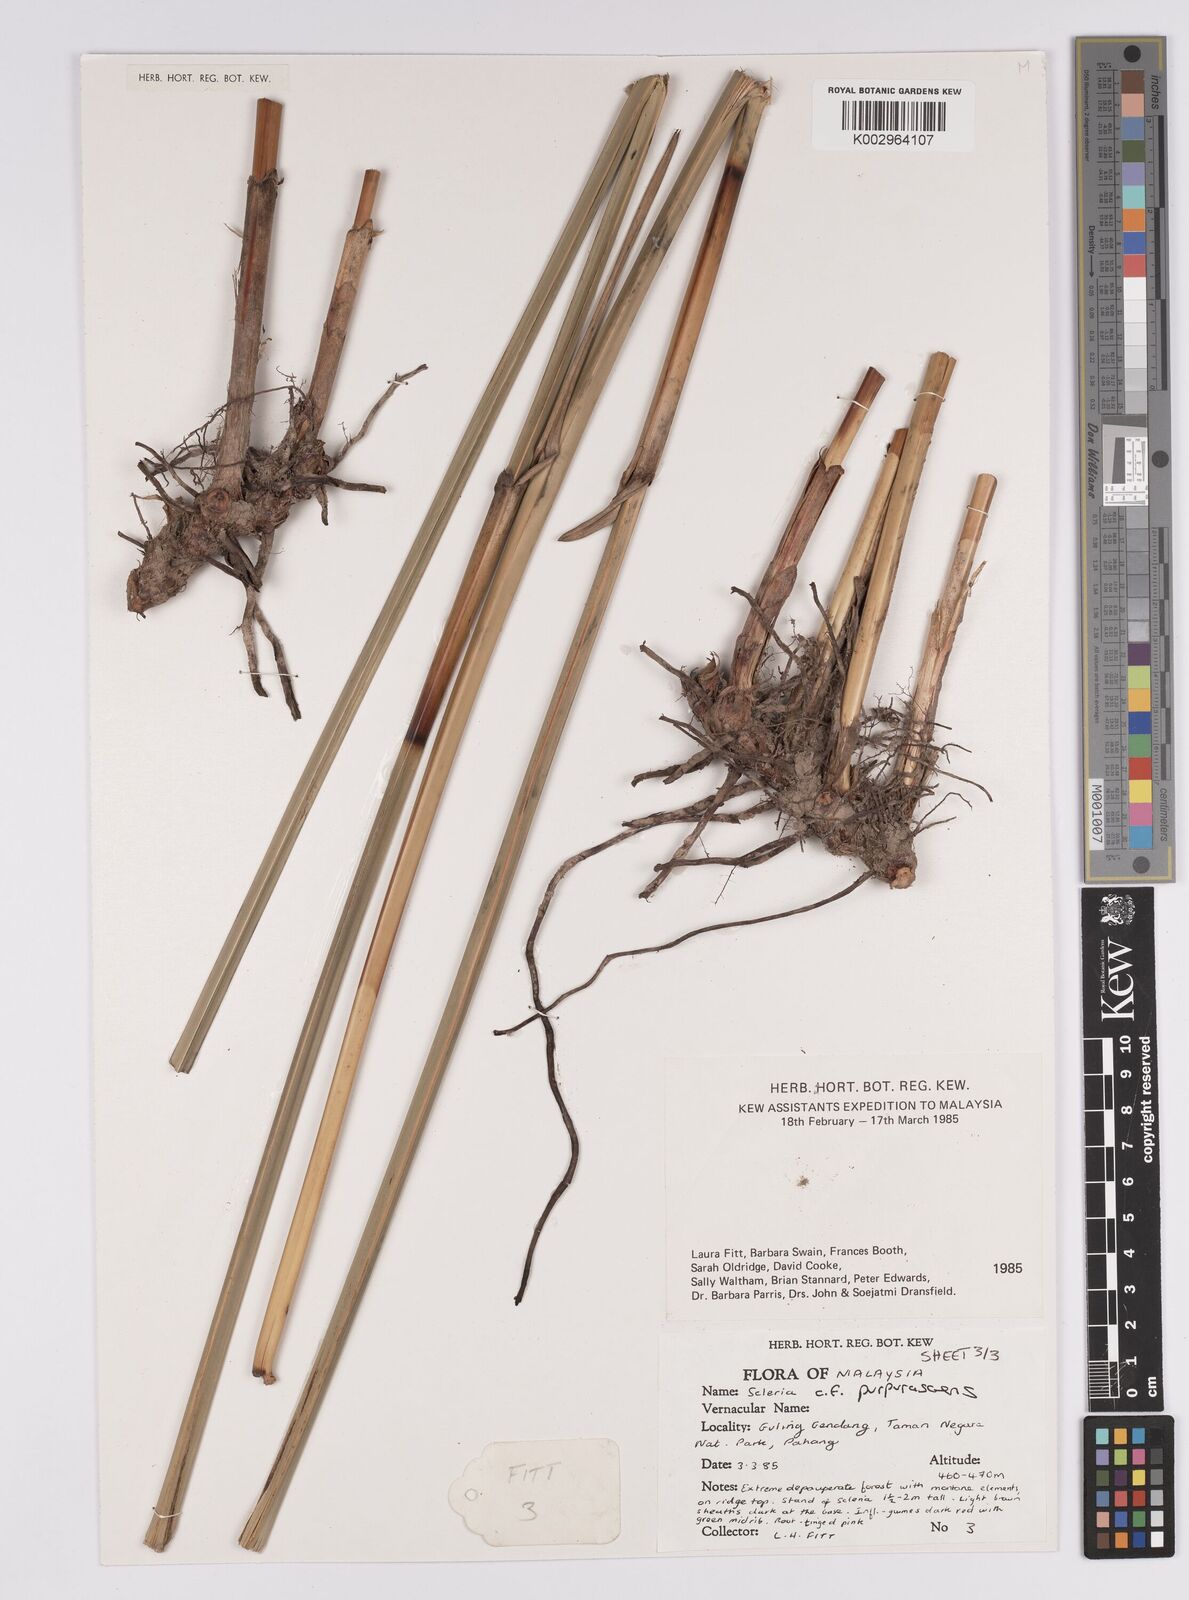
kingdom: Plantae
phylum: Tracheophyta
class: Liliopsida
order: Poales
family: Cyperaceae
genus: Scleria
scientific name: Scleria purpurascens
